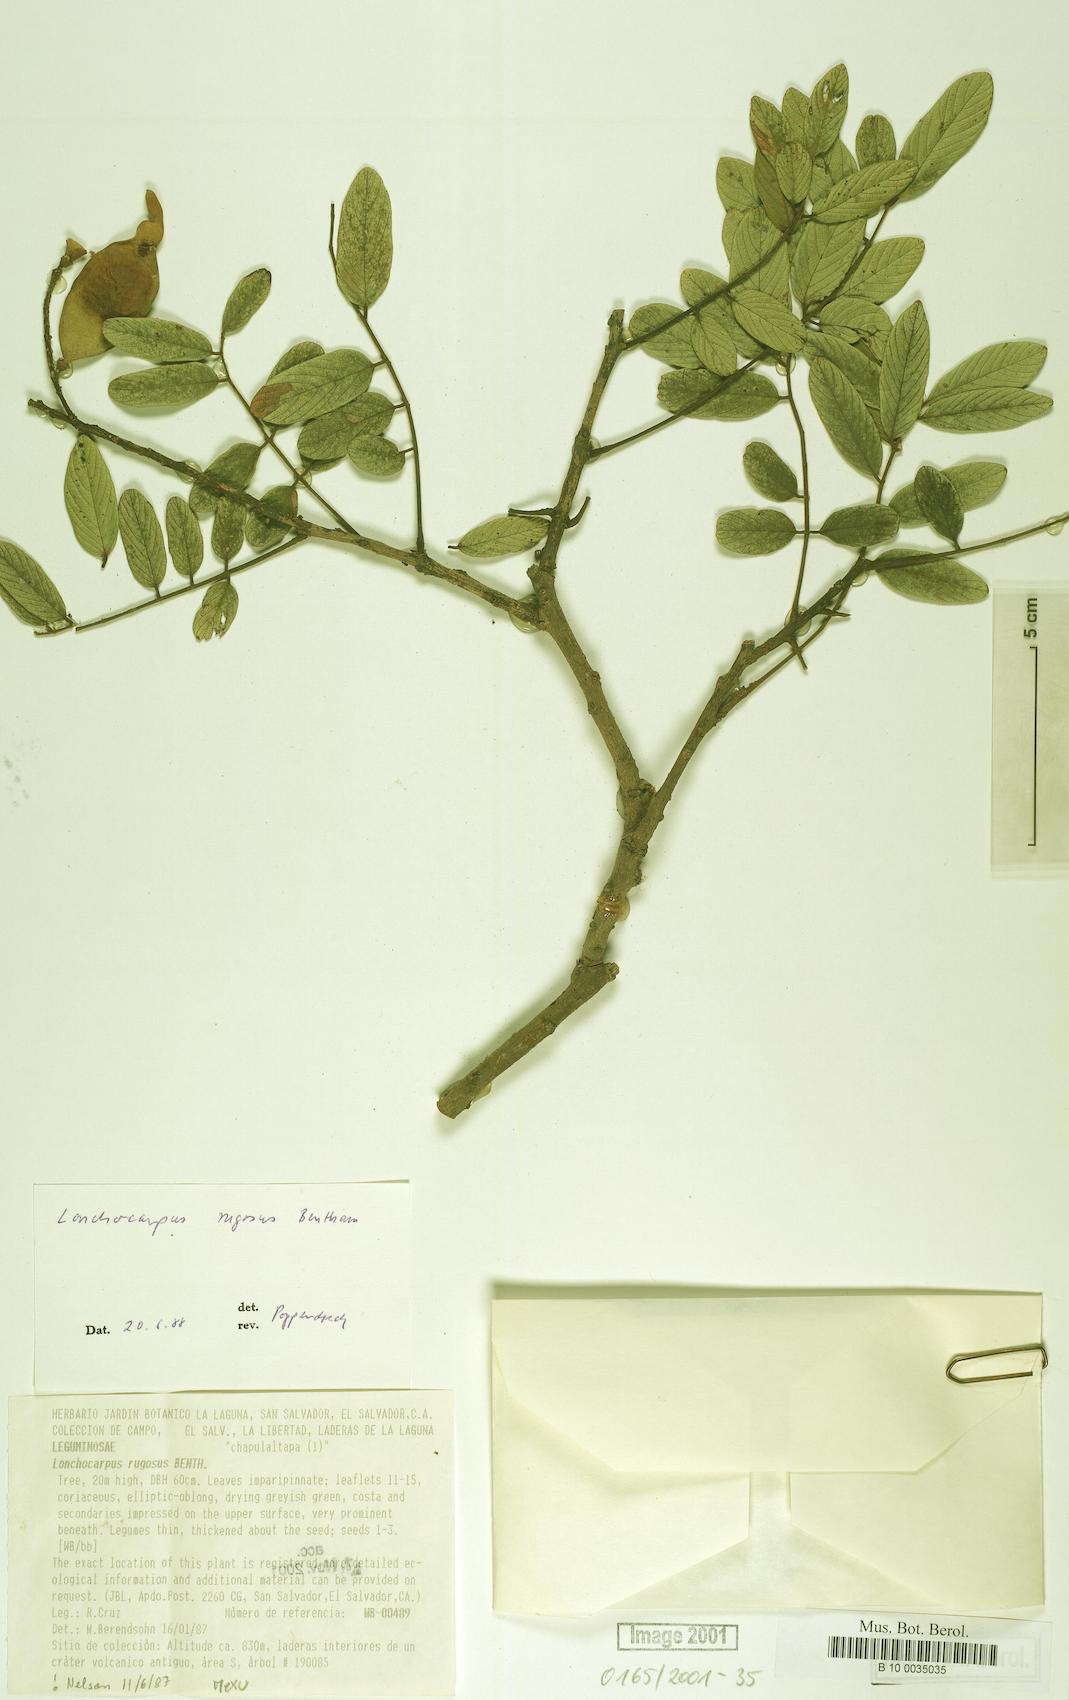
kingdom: Plantae
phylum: Tracheophyta
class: Magnoliopsida
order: Fabales
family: Fabaceae
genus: Lonchocarpus
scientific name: Lonchocarpus rugosus
